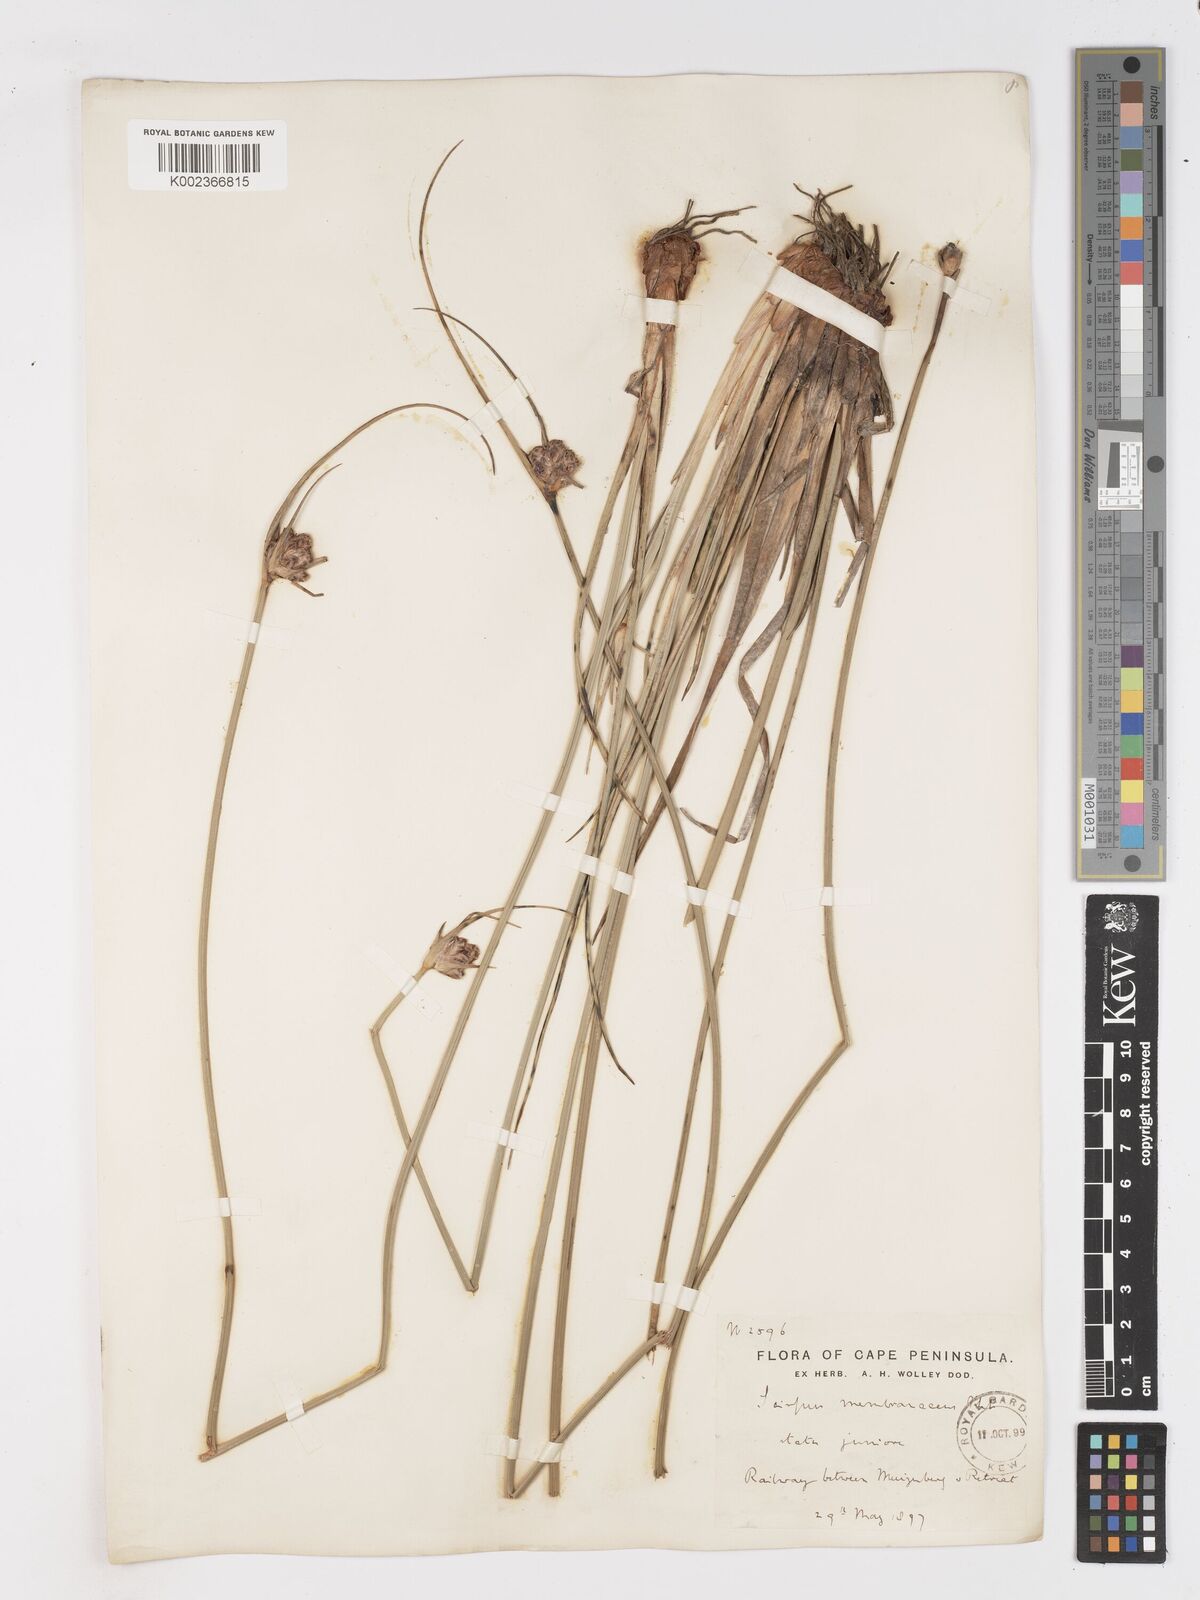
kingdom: Plantae
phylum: Tracheophyta
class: Liliopsida
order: Poales
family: Cyperaceae
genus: Hellmuthia
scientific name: Hellmuthia membranacea
